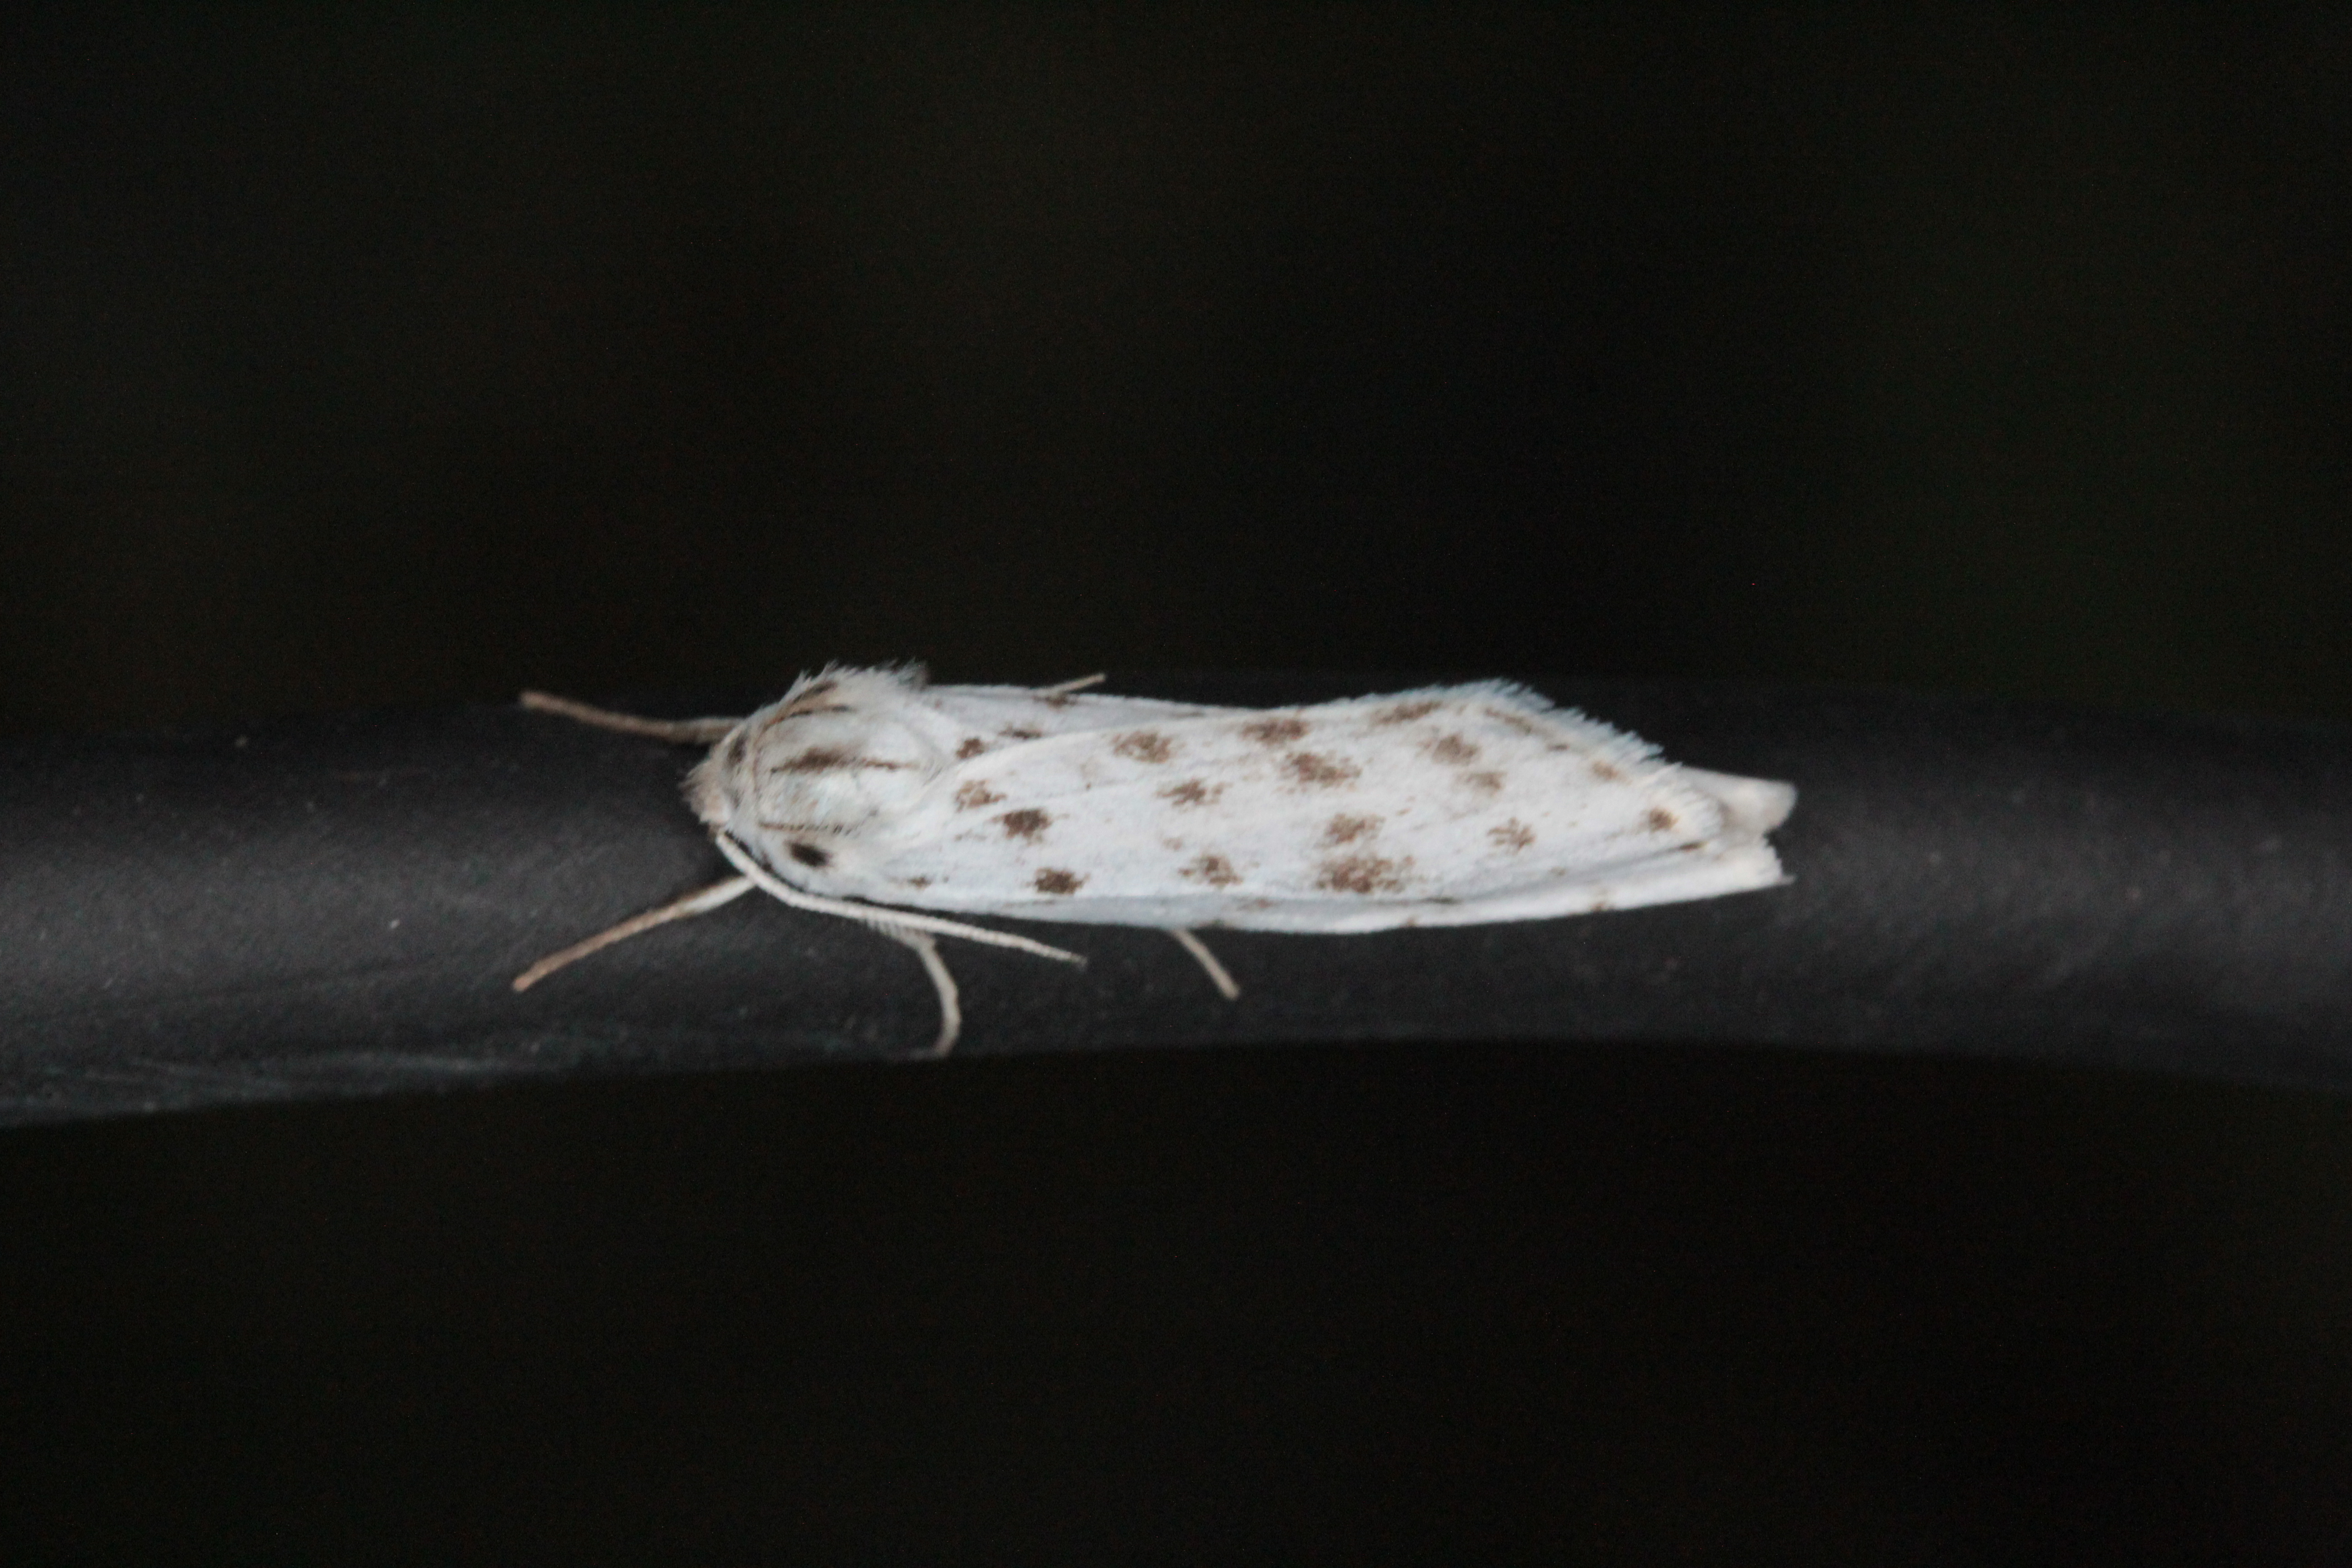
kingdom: Animalia
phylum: Arthropoda
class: Insecta
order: Lepidoptera
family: Erebidae
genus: Coscinia
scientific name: Coscinia cribraria
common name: Speckled footman
